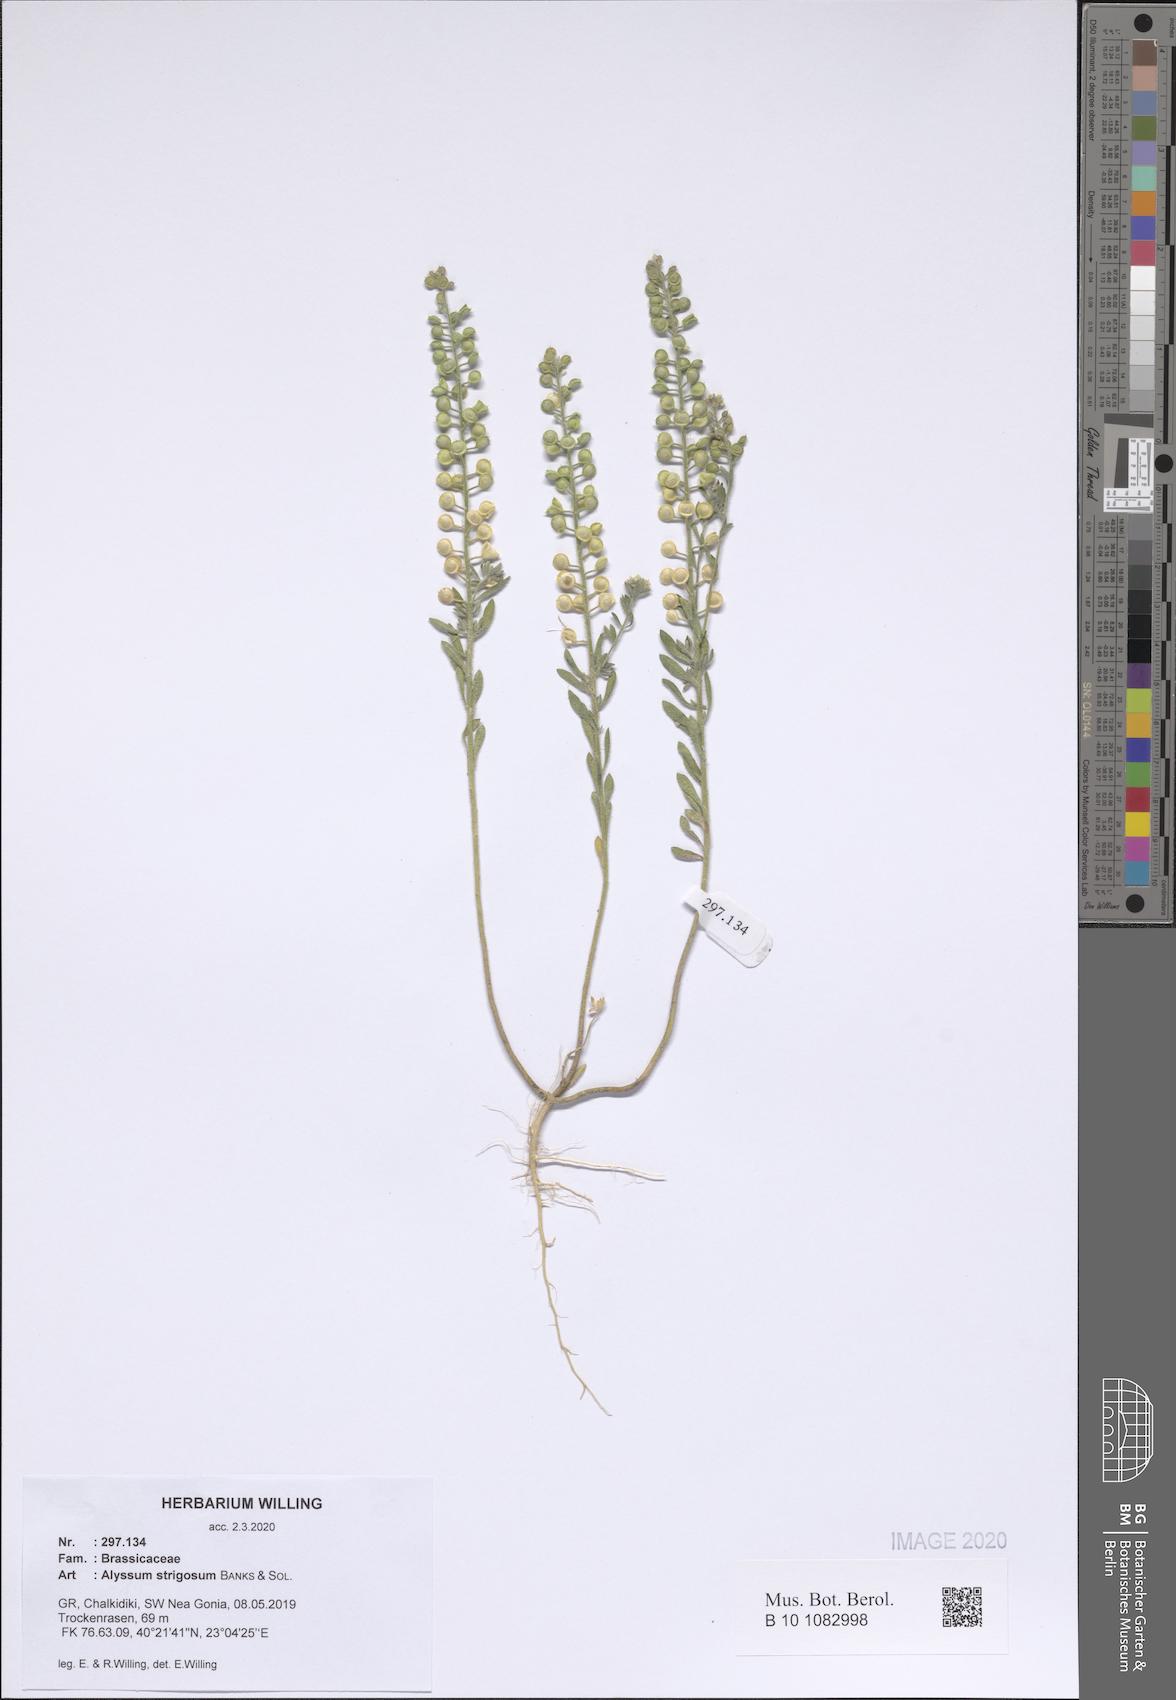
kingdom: Plantae
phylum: Tracheophyta
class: Magnoliopsida
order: Brassicales
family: Brassicaceae
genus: Alyssum
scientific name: Alyssum strigosum
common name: Alyssum
